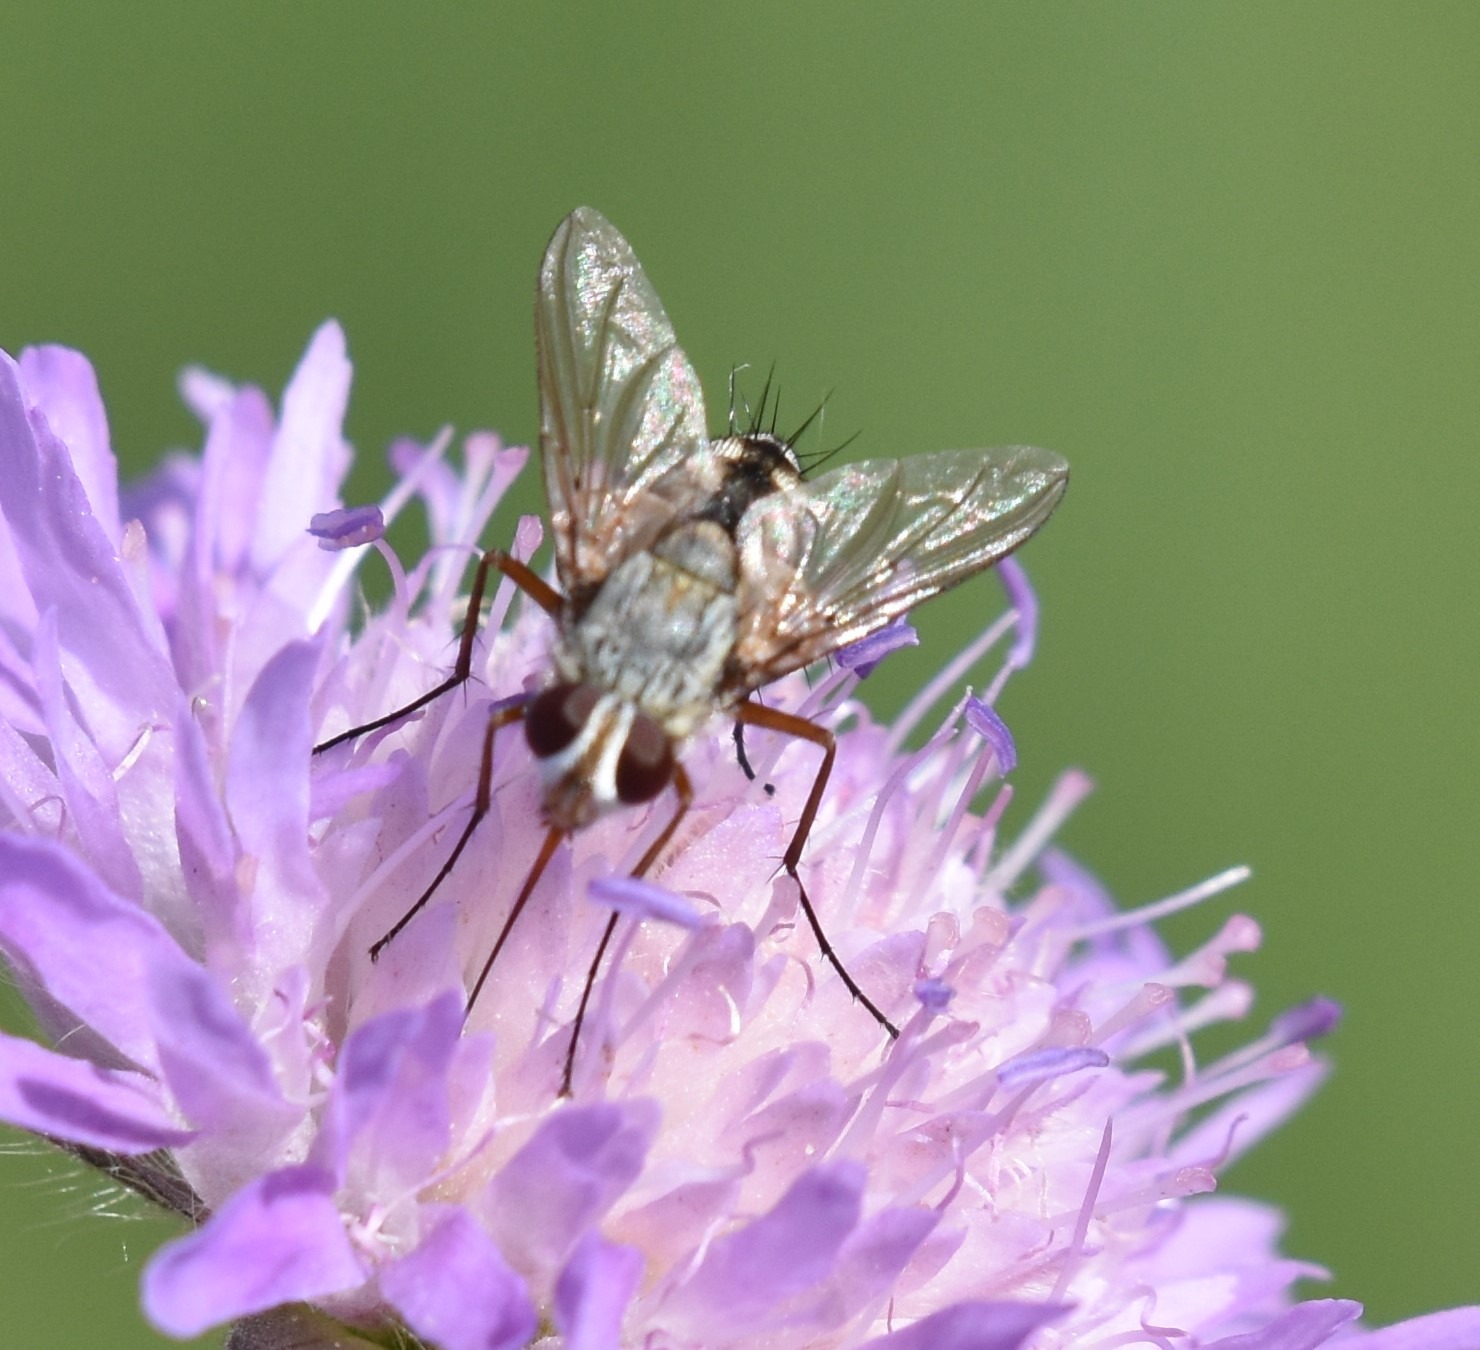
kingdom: Animalia
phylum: Arthropoda
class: Insecta
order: Diptera
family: Tachinidae
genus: Prosena
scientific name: Prosena siberita
